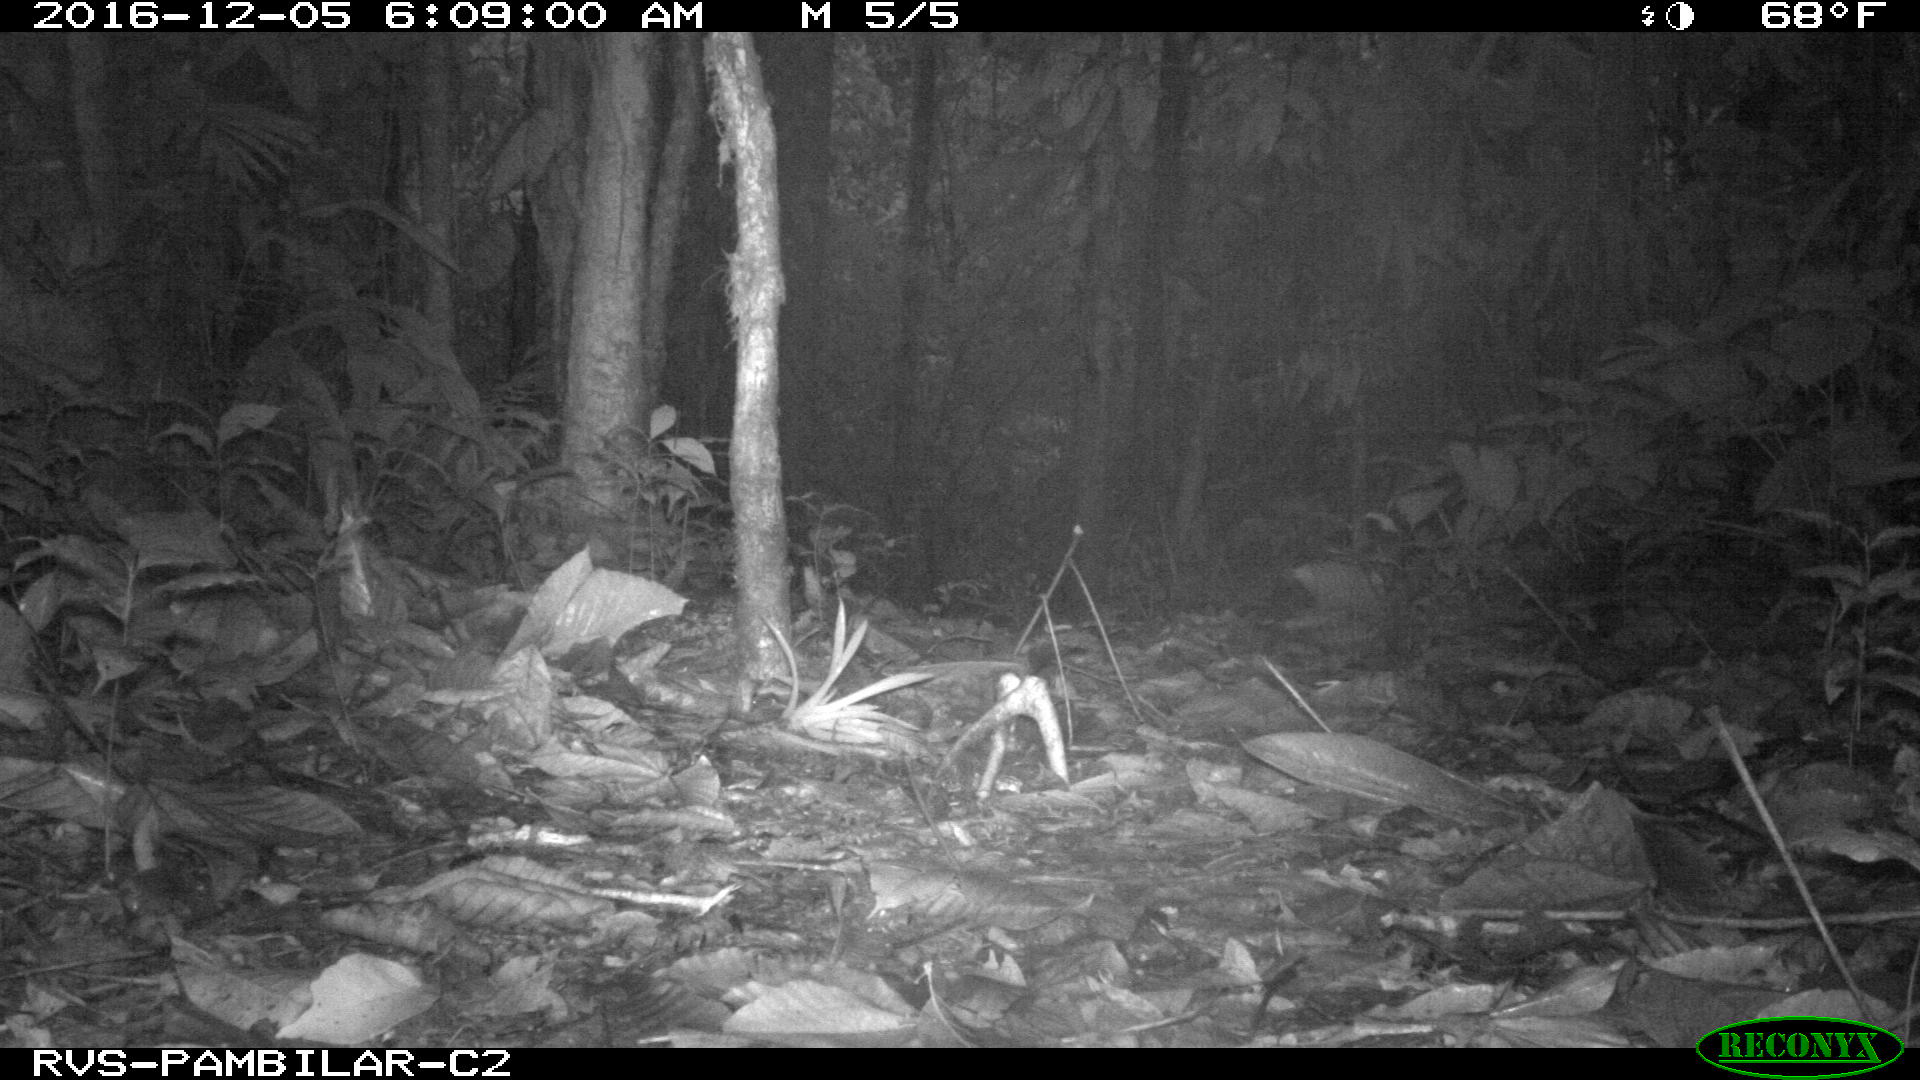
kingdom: Animalia
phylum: Chordata
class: Mammalia
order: Didelphimorphia
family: Didelphidae
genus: Didelphis
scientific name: Didelphis marsupialis
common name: Common opossum
